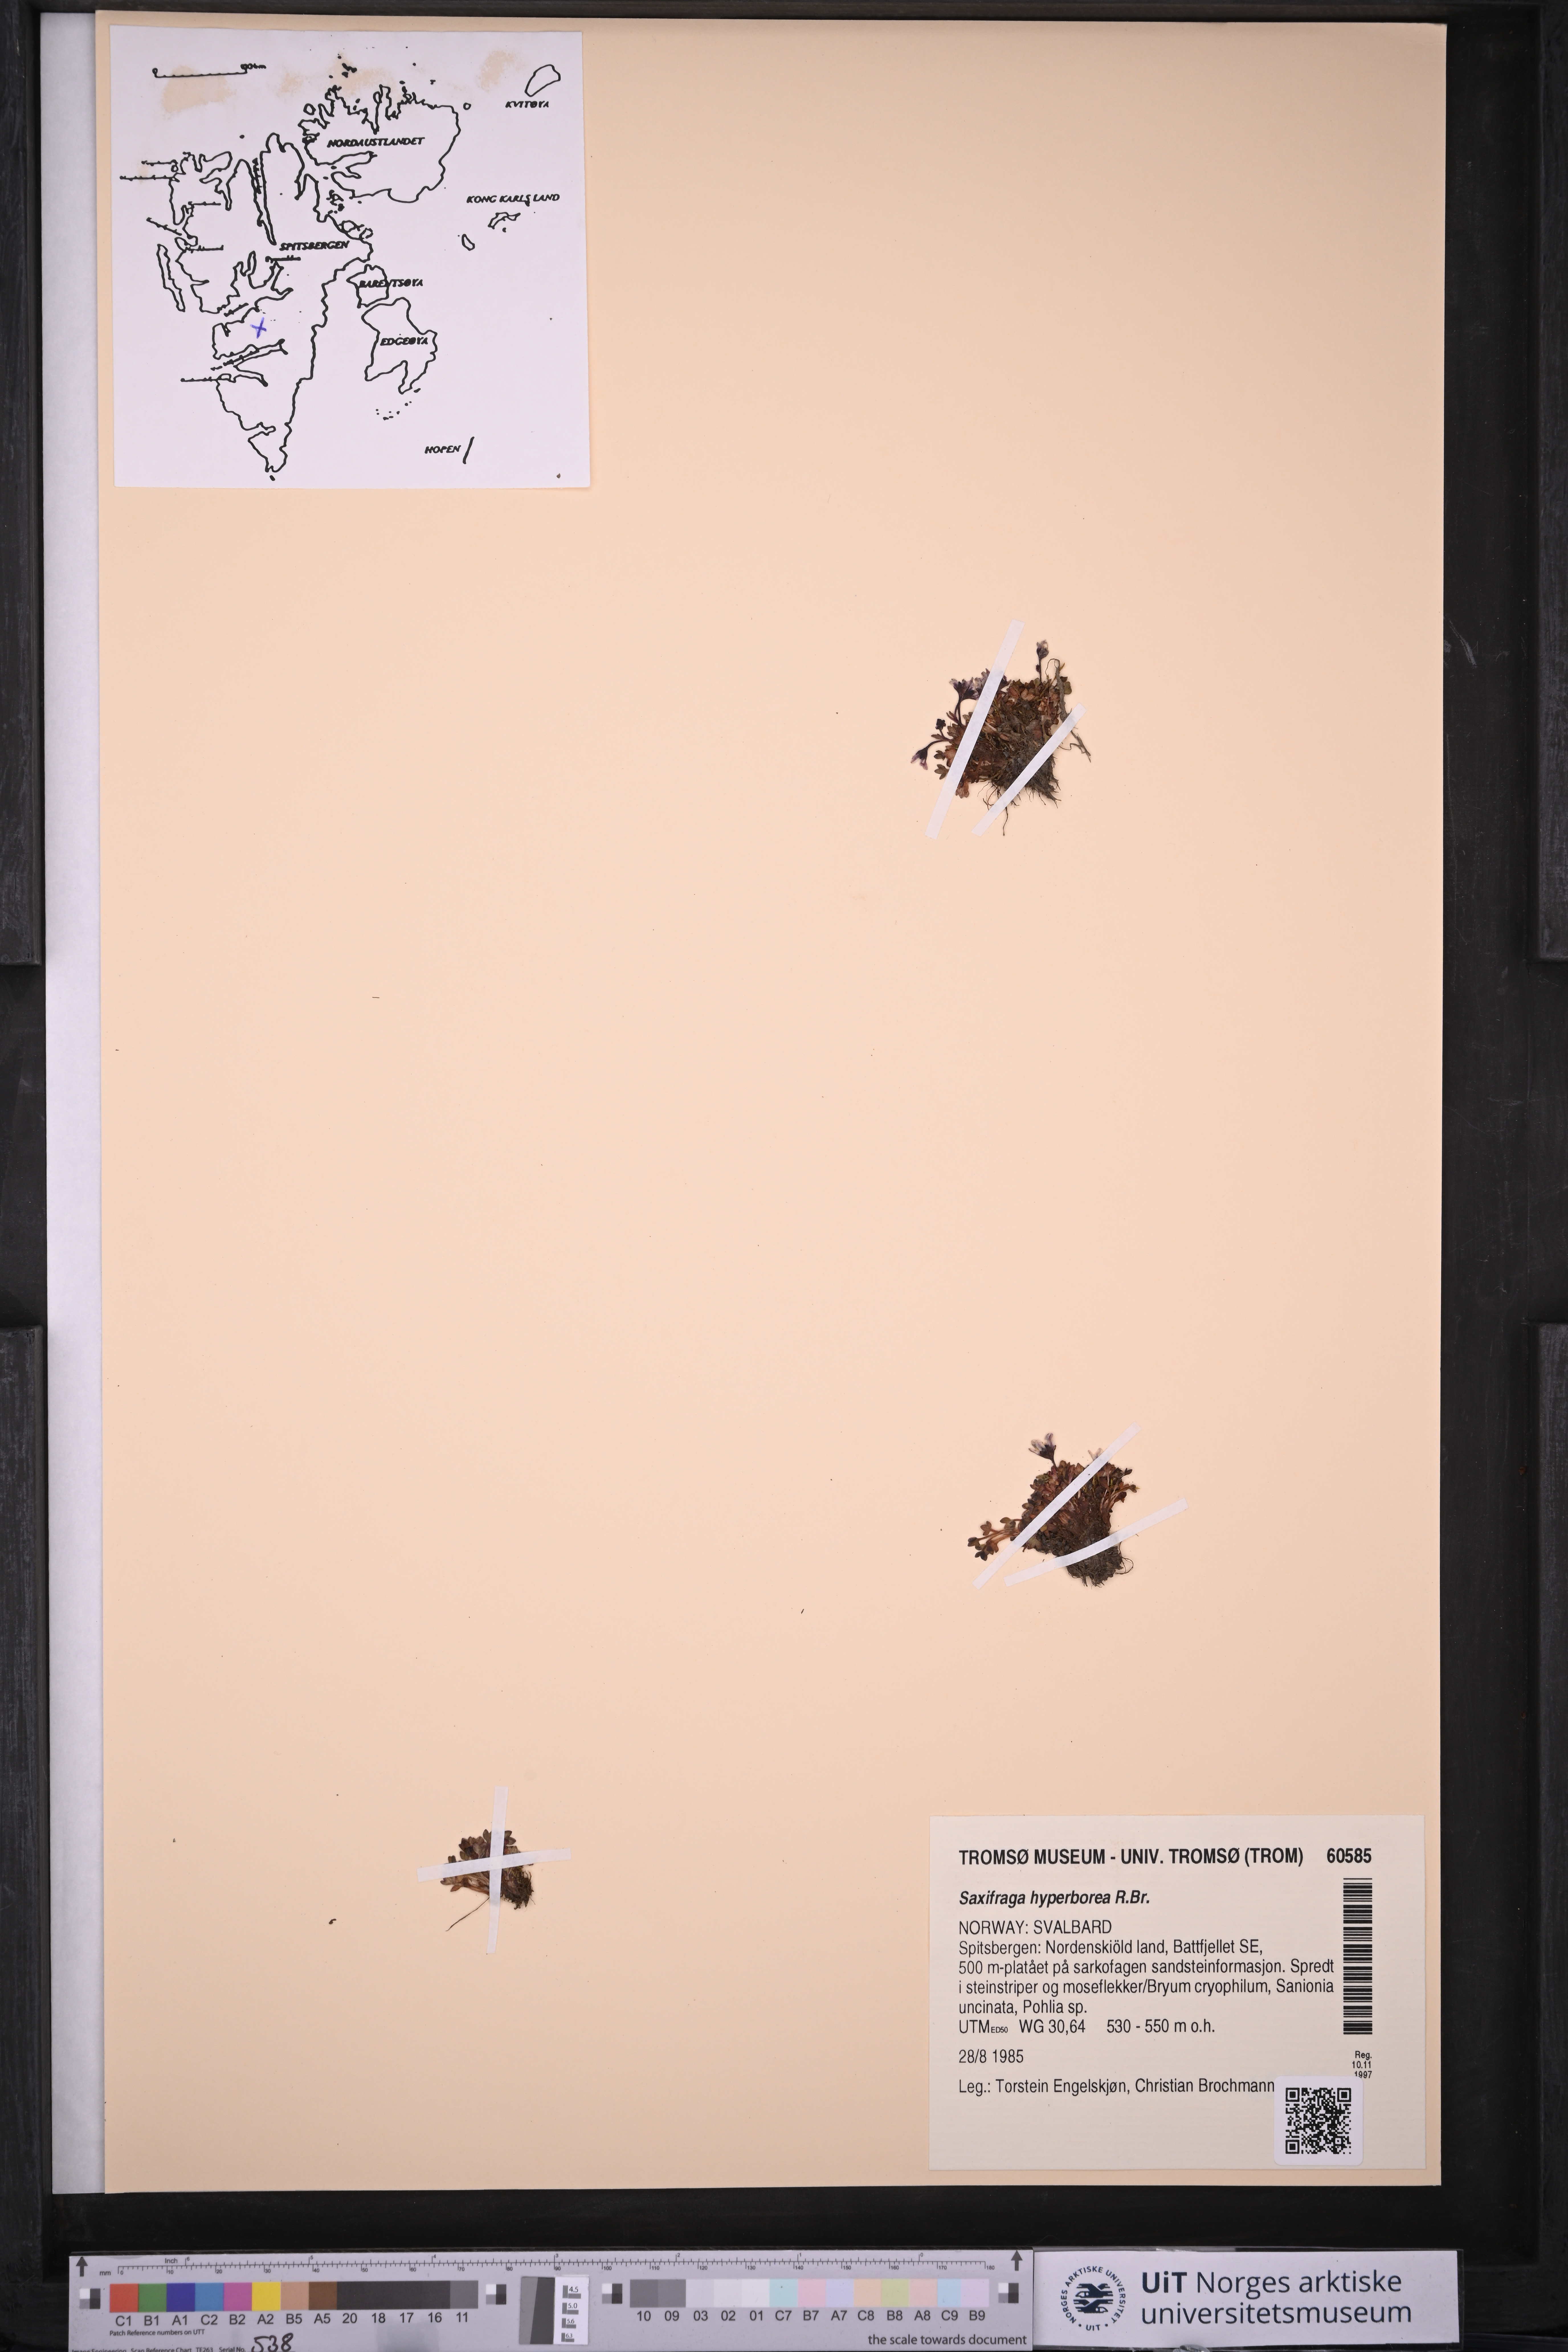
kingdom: Plantae
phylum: Tracheophyta
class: Magnoliopsida
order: Saxifragales
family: Saxifragaceae
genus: Saxifraga
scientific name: Saxifraga hyperborea
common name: Arctic saxifrage
